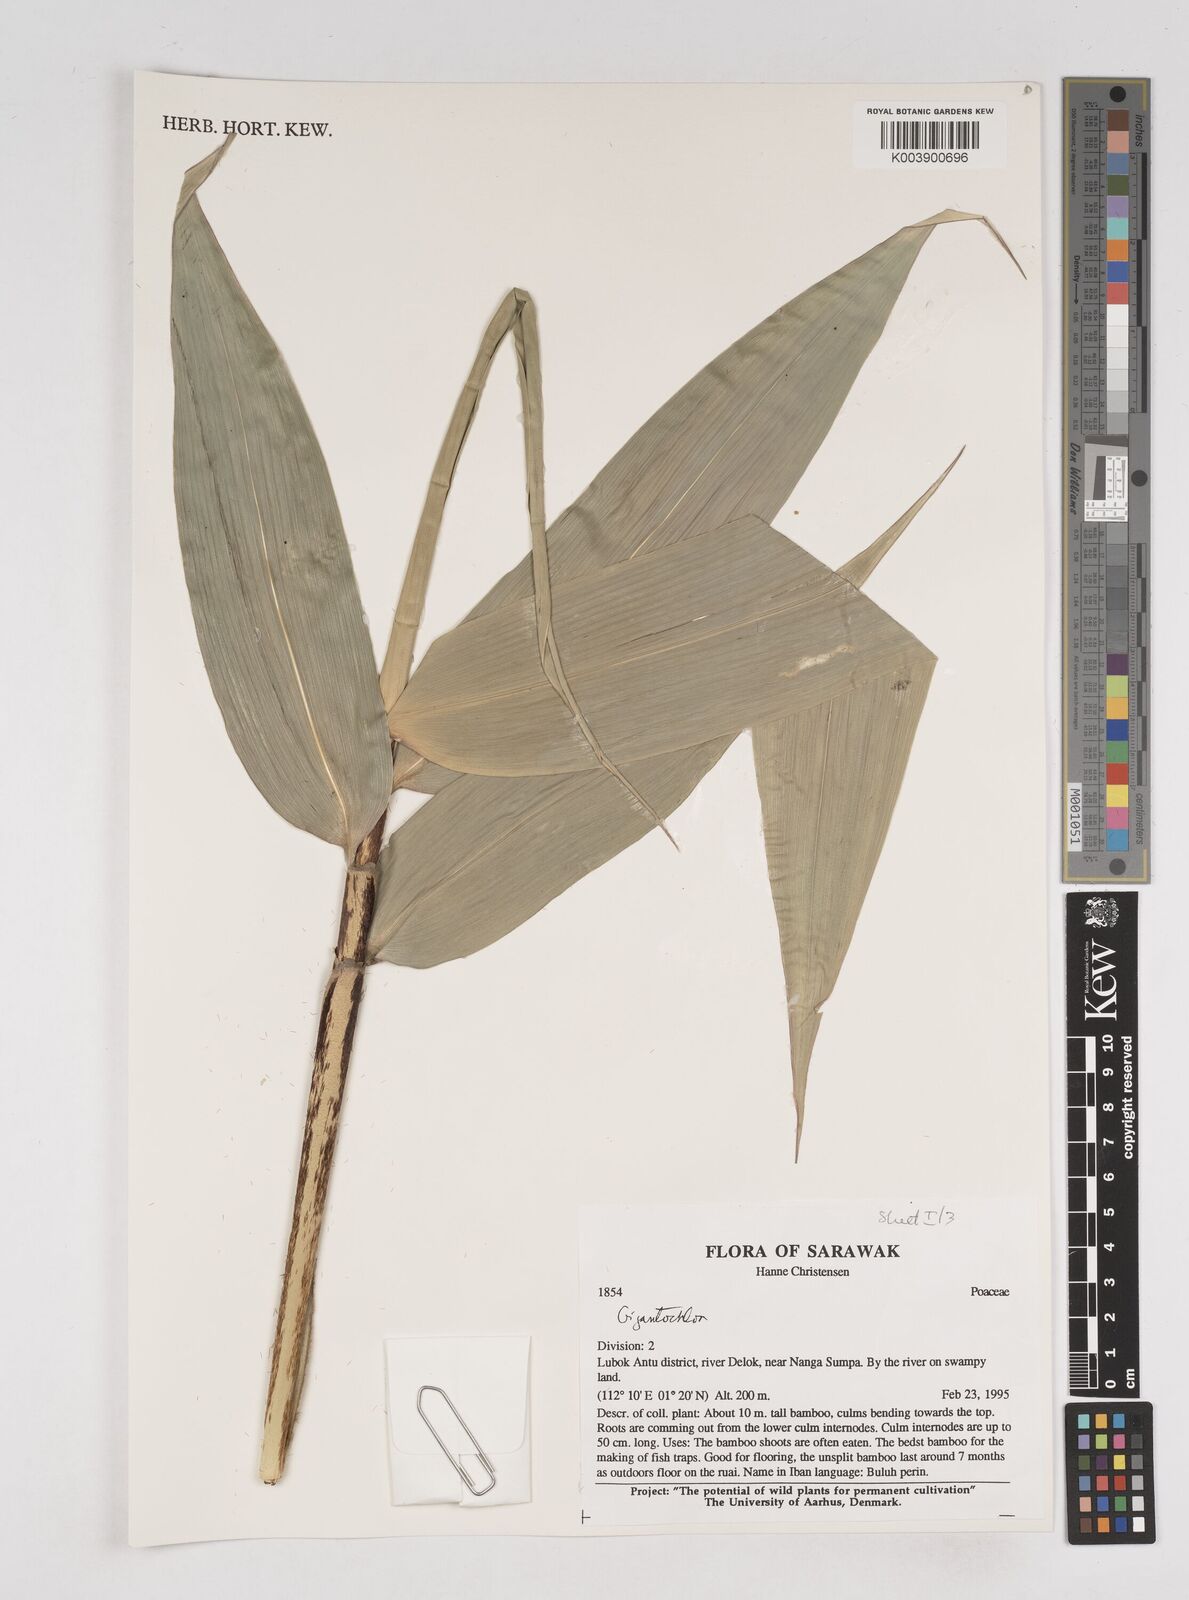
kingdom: Plantae
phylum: Tracheophyta
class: Liliopsida
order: Poales
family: Poaceae
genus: Gigantochloa
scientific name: Gigantochloa
